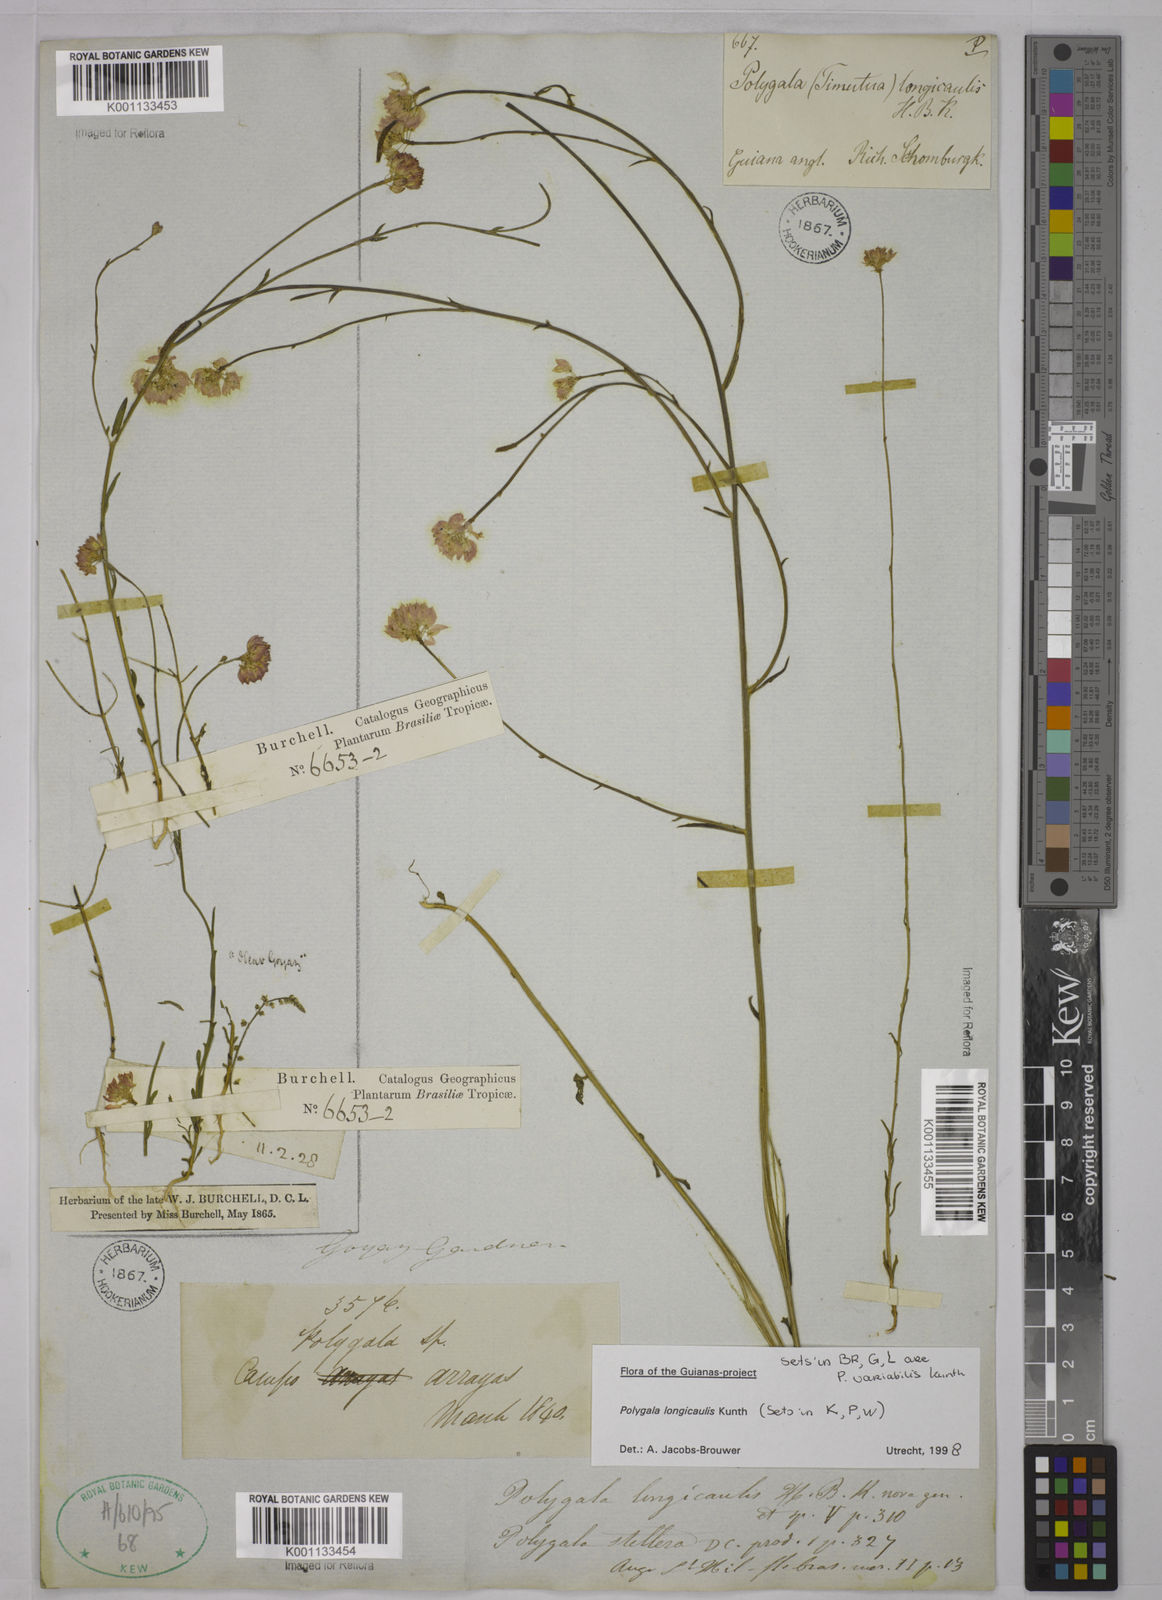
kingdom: Plantae
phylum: Tracheophyta
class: Magnoliopsida
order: Fabales
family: Polygalaceae
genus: Polygala
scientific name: Polygala longicaulis
